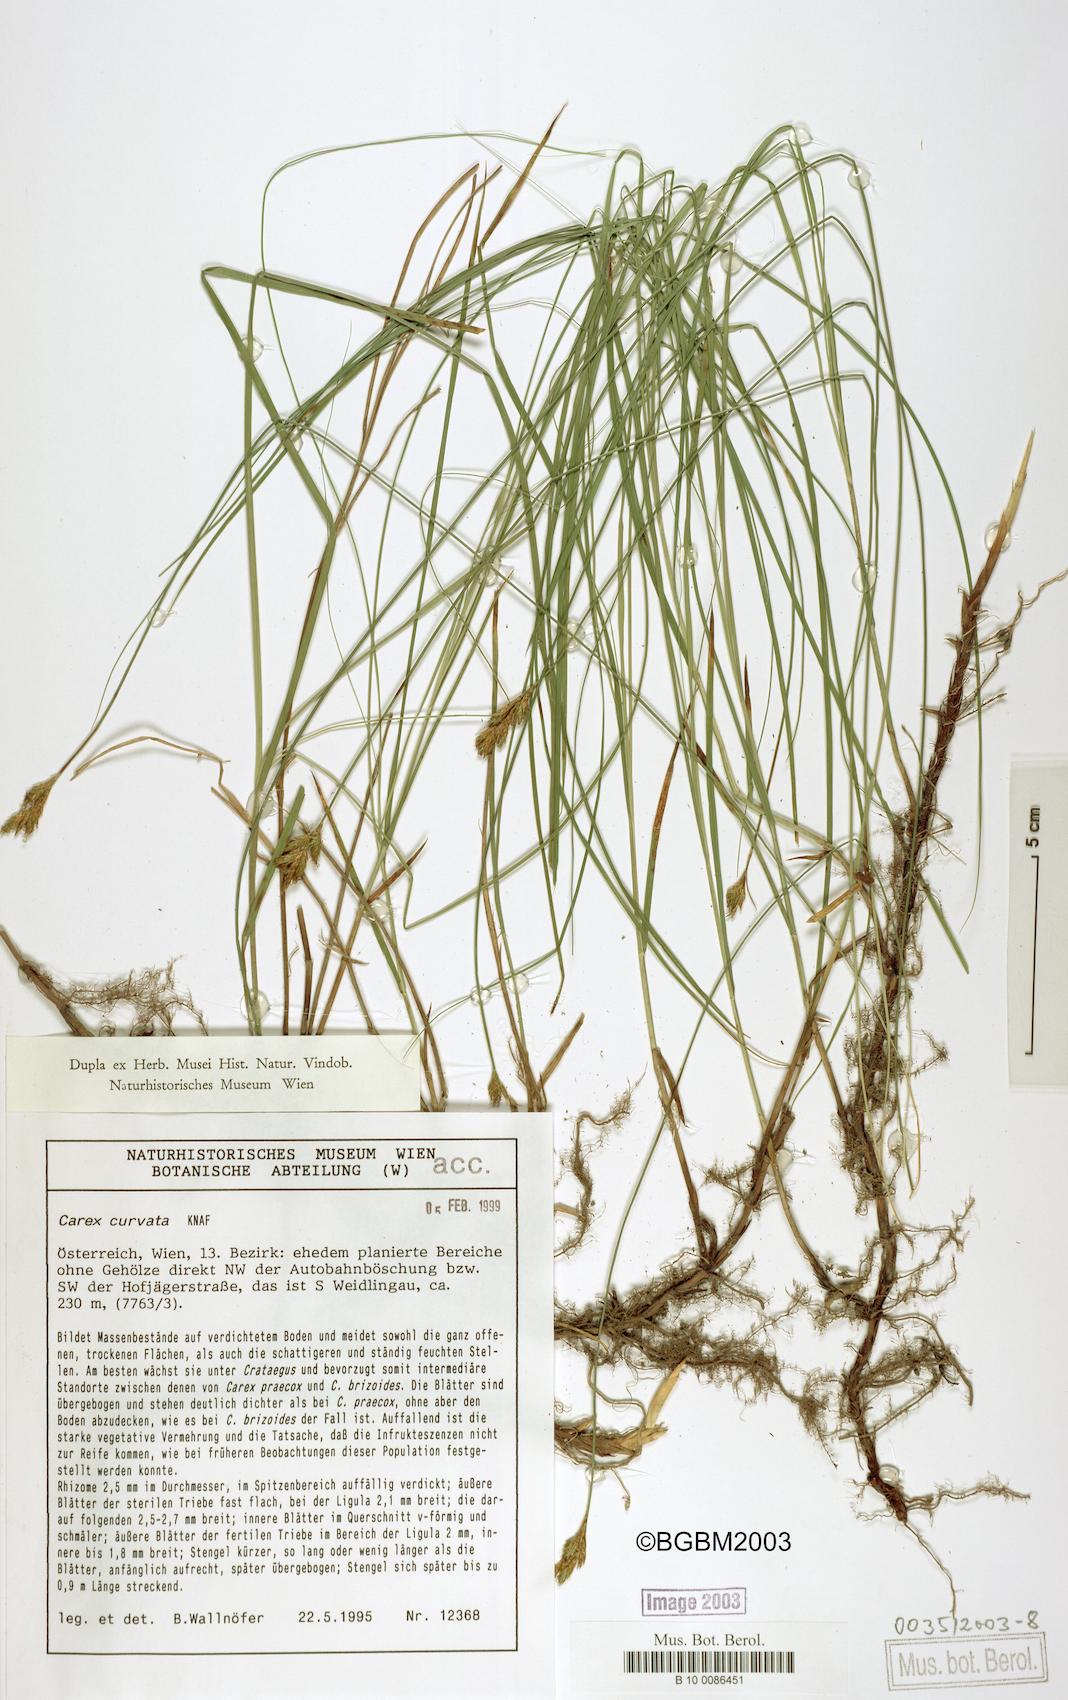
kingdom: Plantae
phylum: Tracheophyta
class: Liliopsida
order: Poales
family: Cyperaceae
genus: Carex
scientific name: Carex curvata
